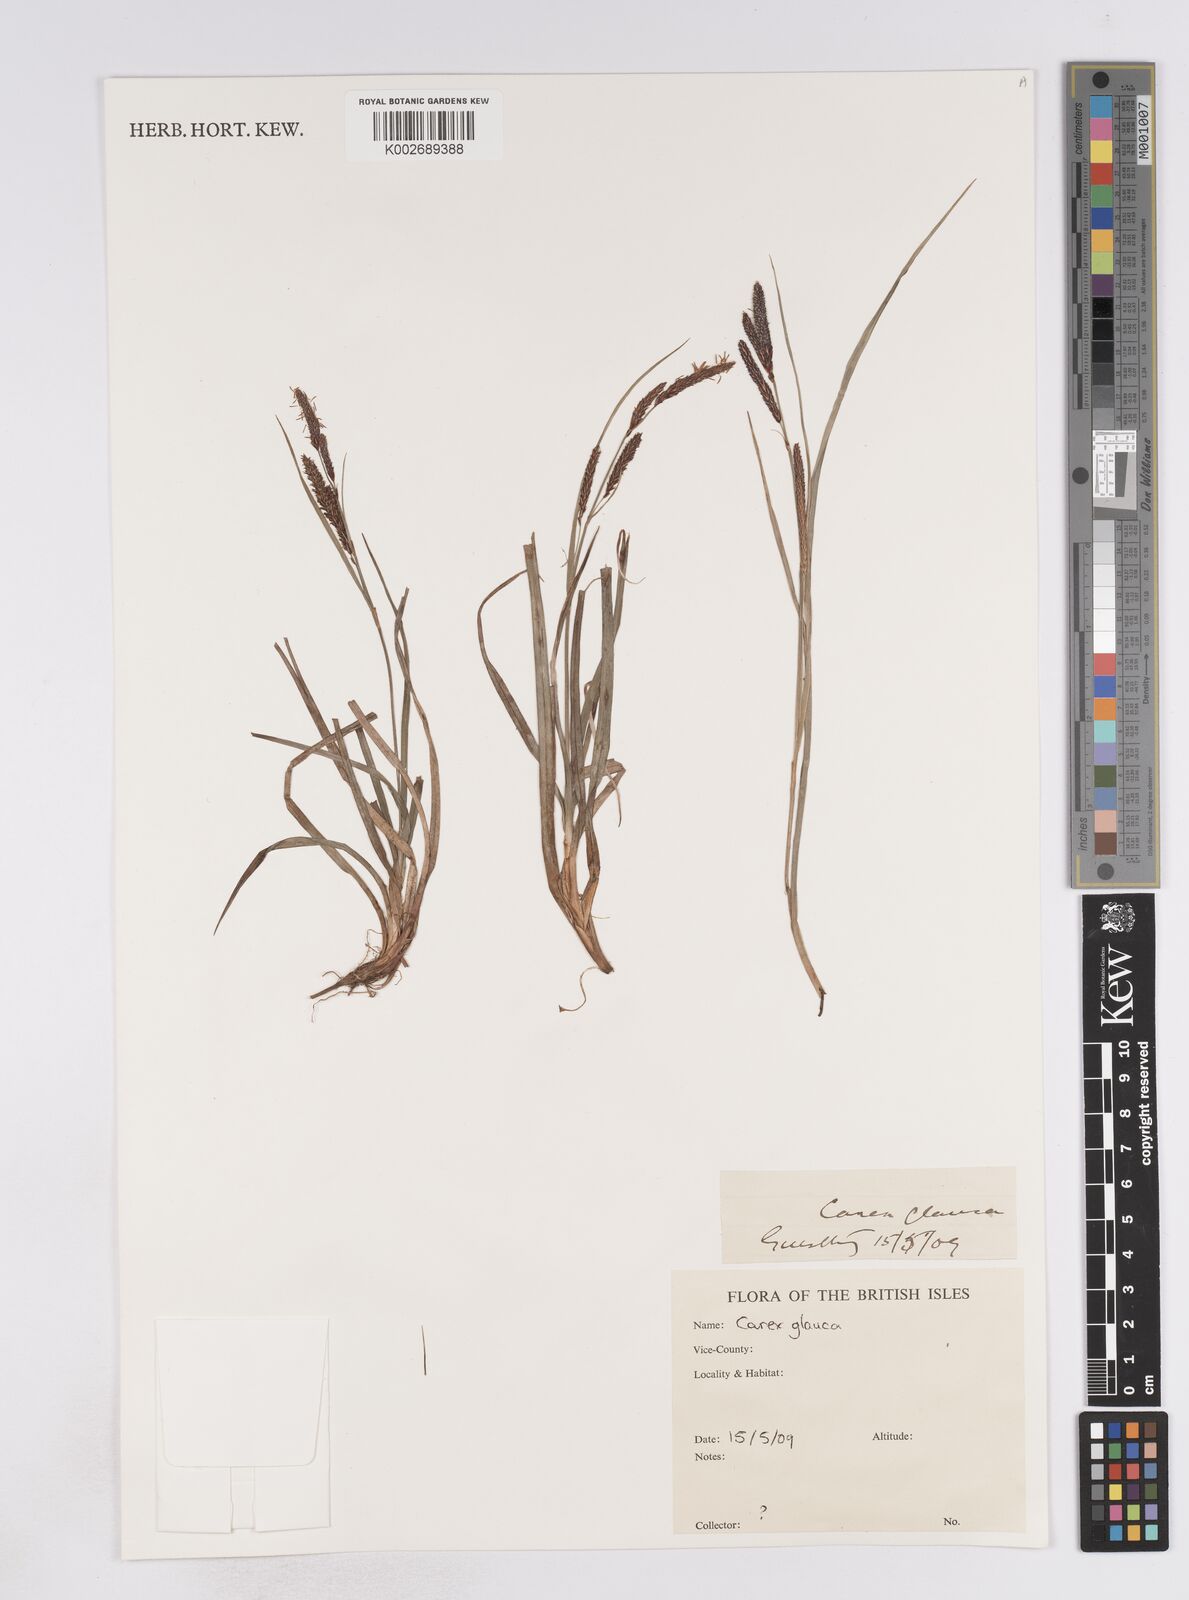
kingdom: Plantae
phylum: Tracheophyta
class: Liliopsida
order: Poales
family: Cyperaceae
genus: Carex
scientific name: Carex flacca
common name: Glaucous sedge
